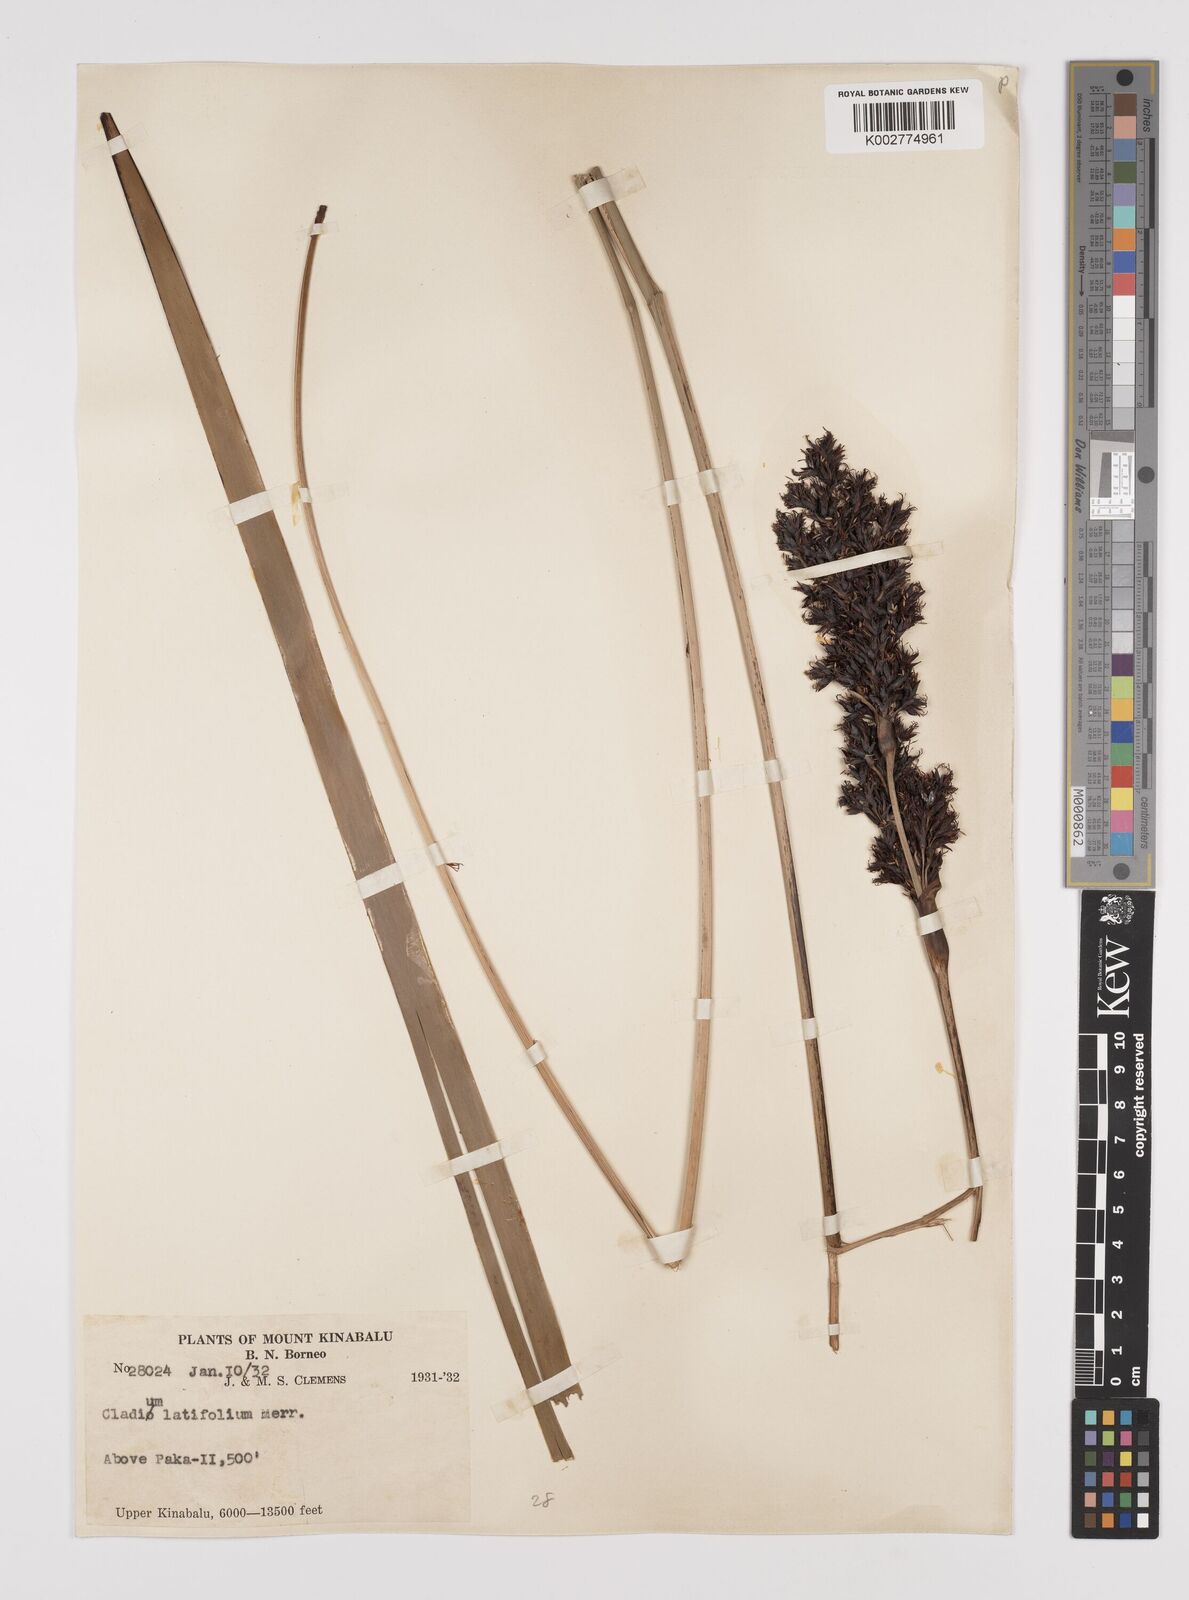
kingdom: Plantae
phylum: Tracheophyta
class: Liliopsida
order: Poales
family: Cyperaceae
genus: Machaerina
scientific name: Machaerina falcata
